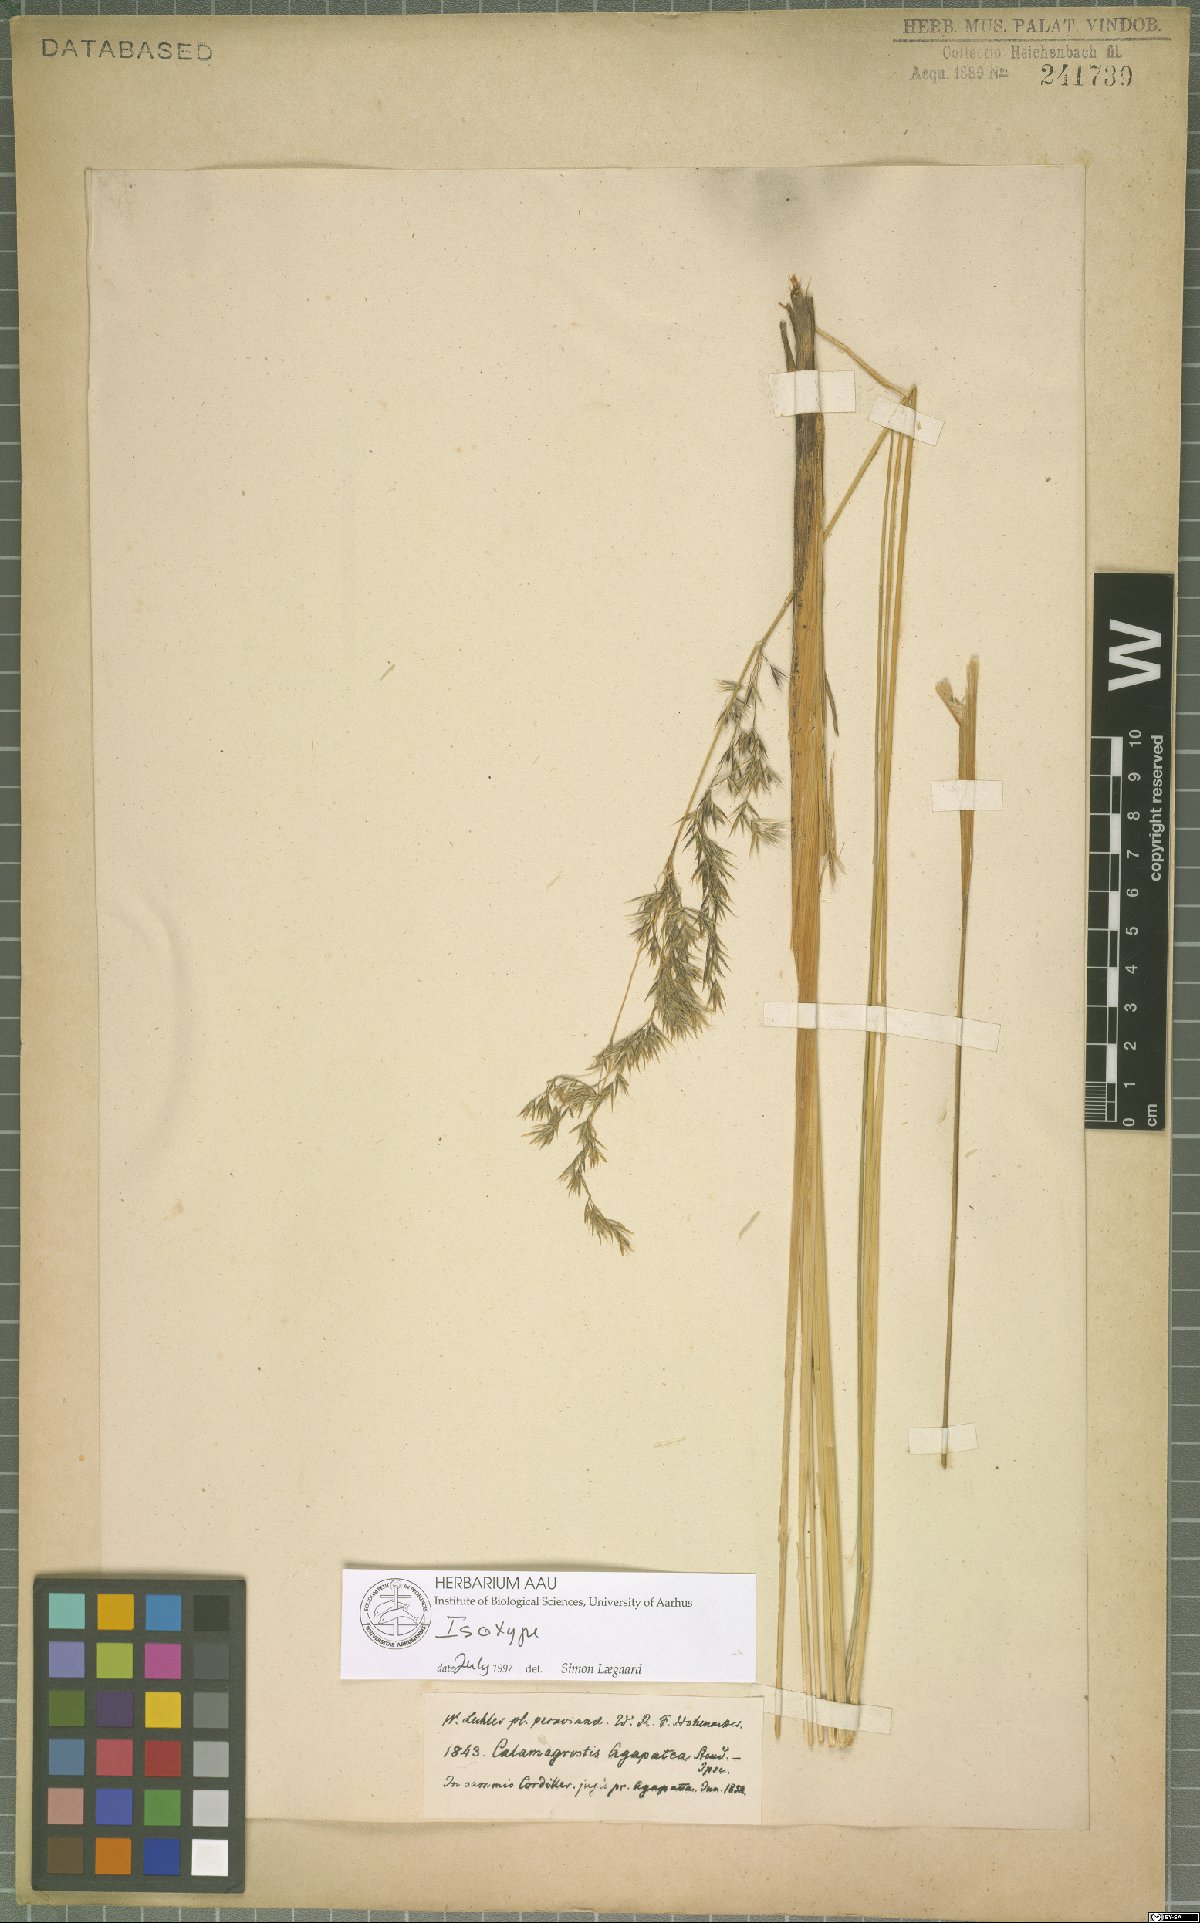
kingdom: Plantae
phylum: Tracheophyta
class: Liliopsida
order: Poales
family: Poaceae
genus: Cinnagrostis
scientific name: Cinnagrostis intermedia
